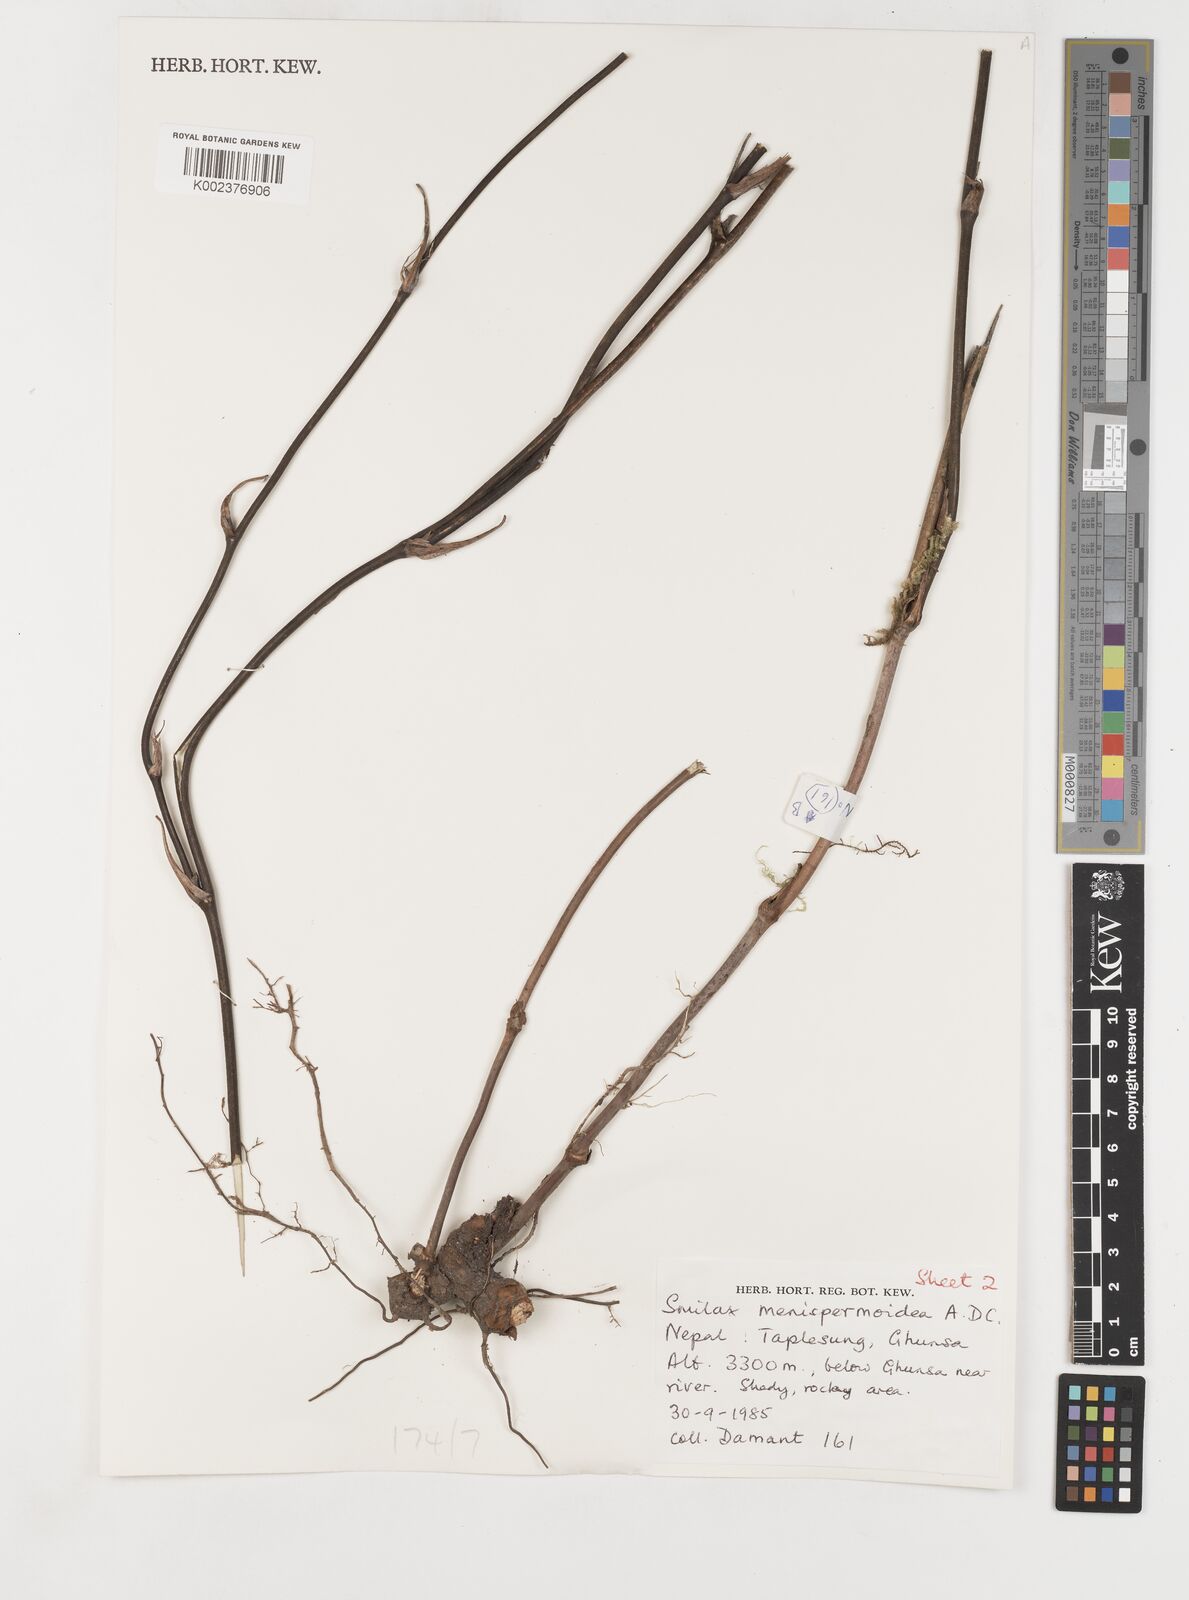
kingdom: Plantae
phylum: Tracheophyta
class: Liliopsida
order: Liliales
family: Smilacaceae
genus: Smilax
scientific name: Smilax menispermoidea
